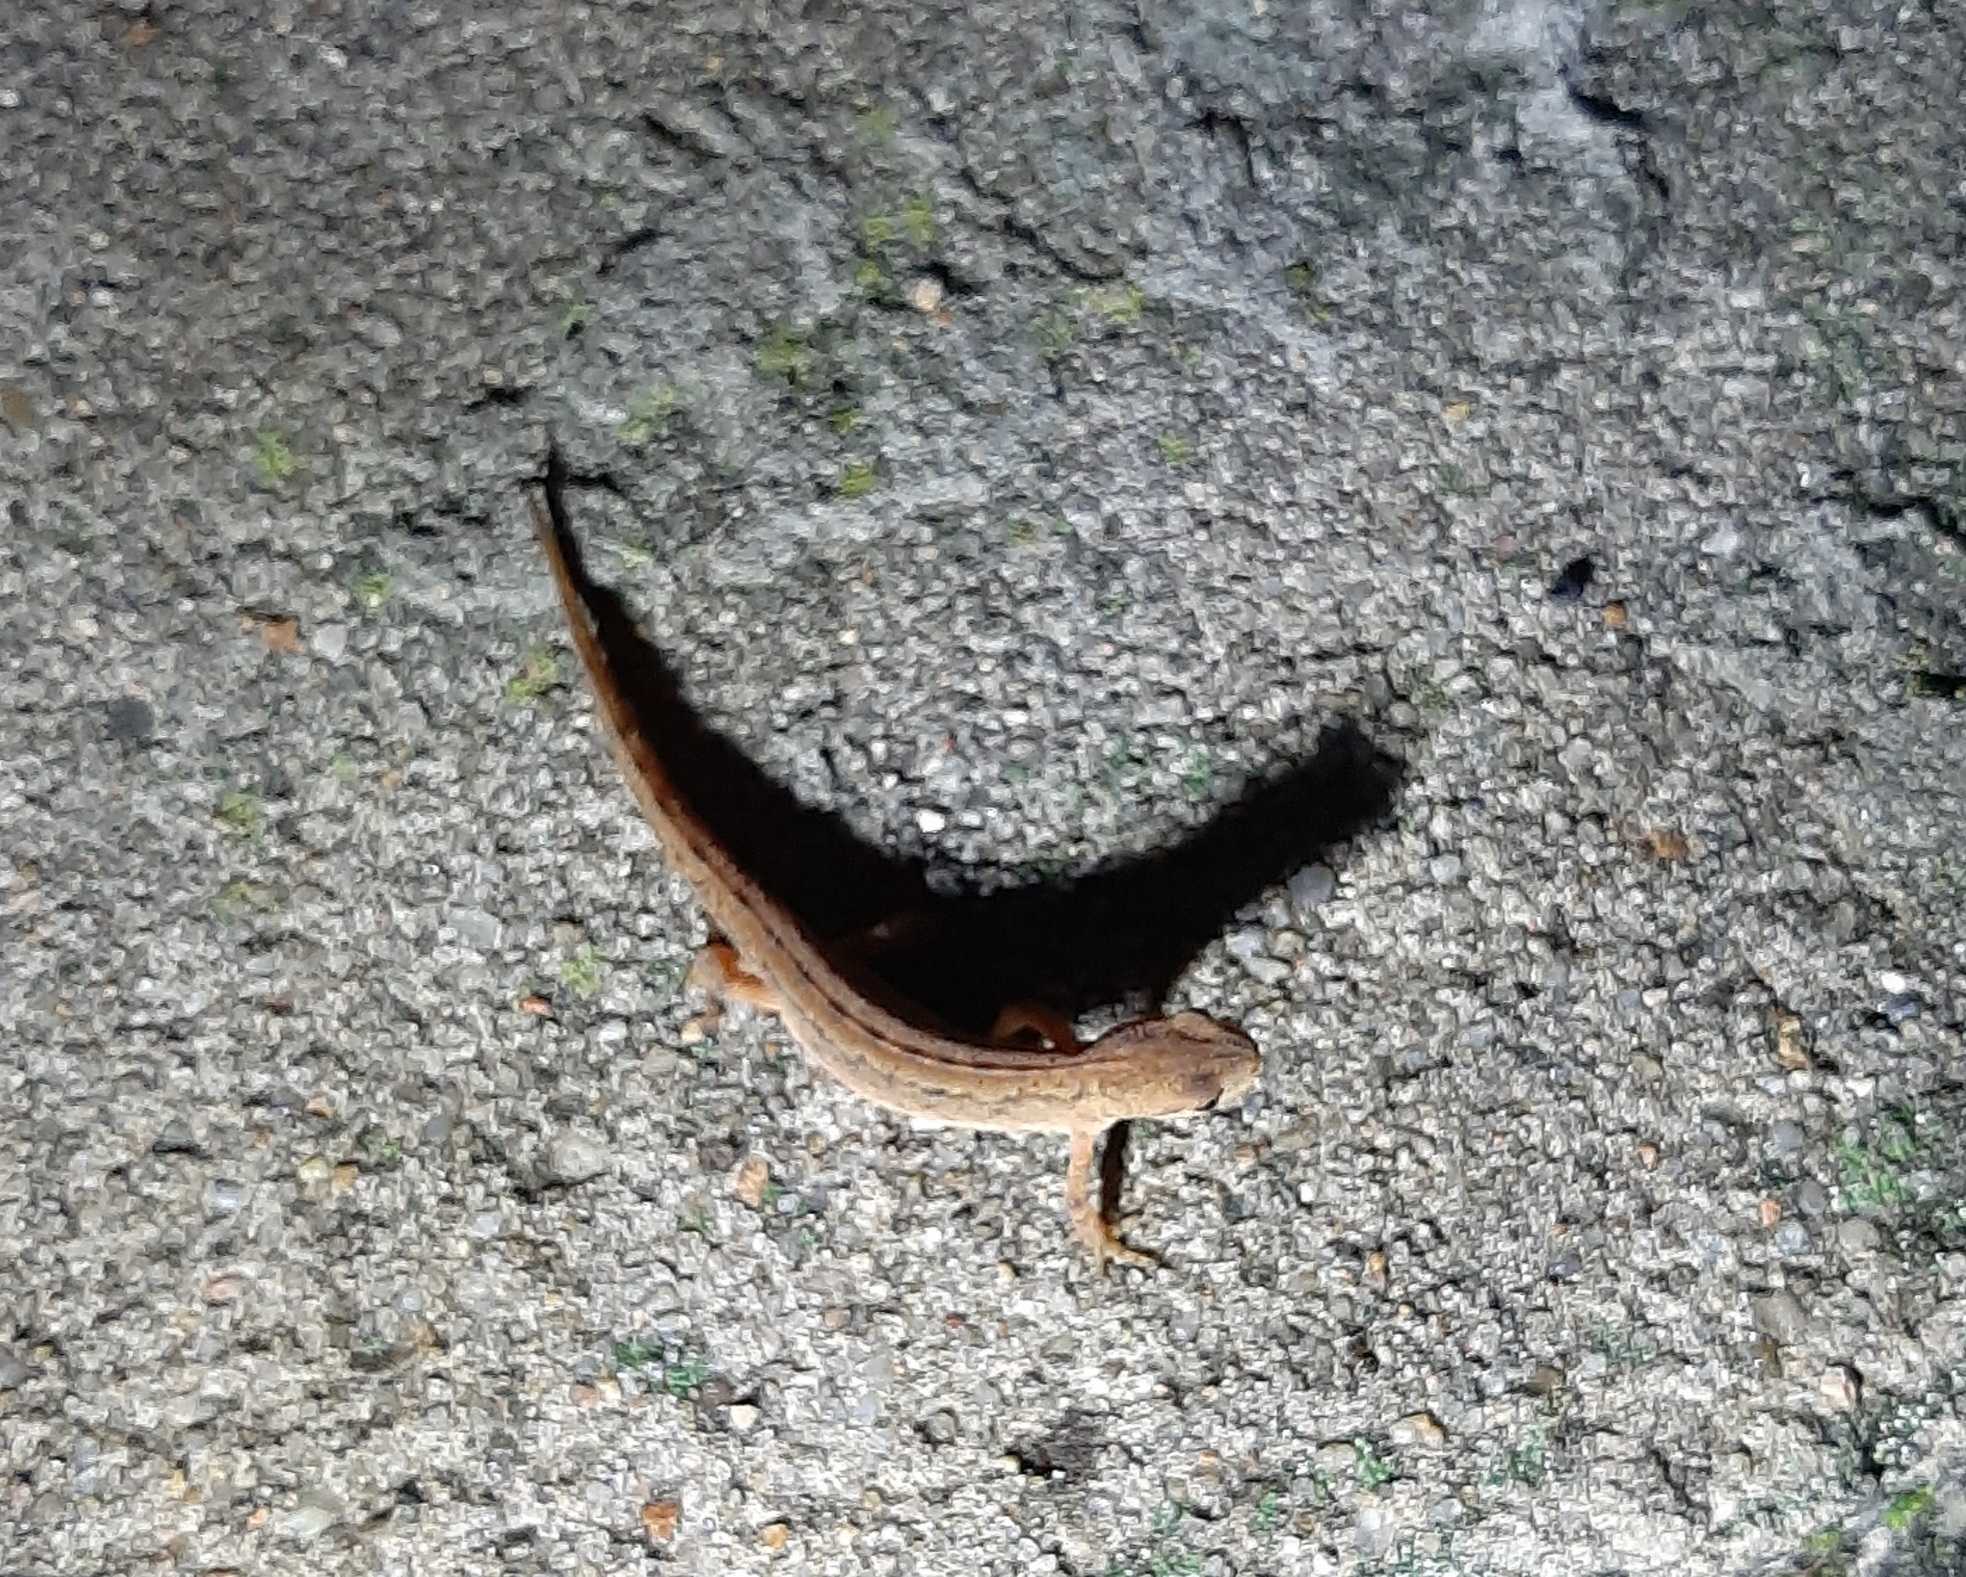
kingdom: Animalia
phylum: Chordata
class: Amphibia
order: Caudata
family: Salamandridae
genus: Lissotriton
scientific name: Lissotriton vulgaris
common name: Lille vandsalamander
